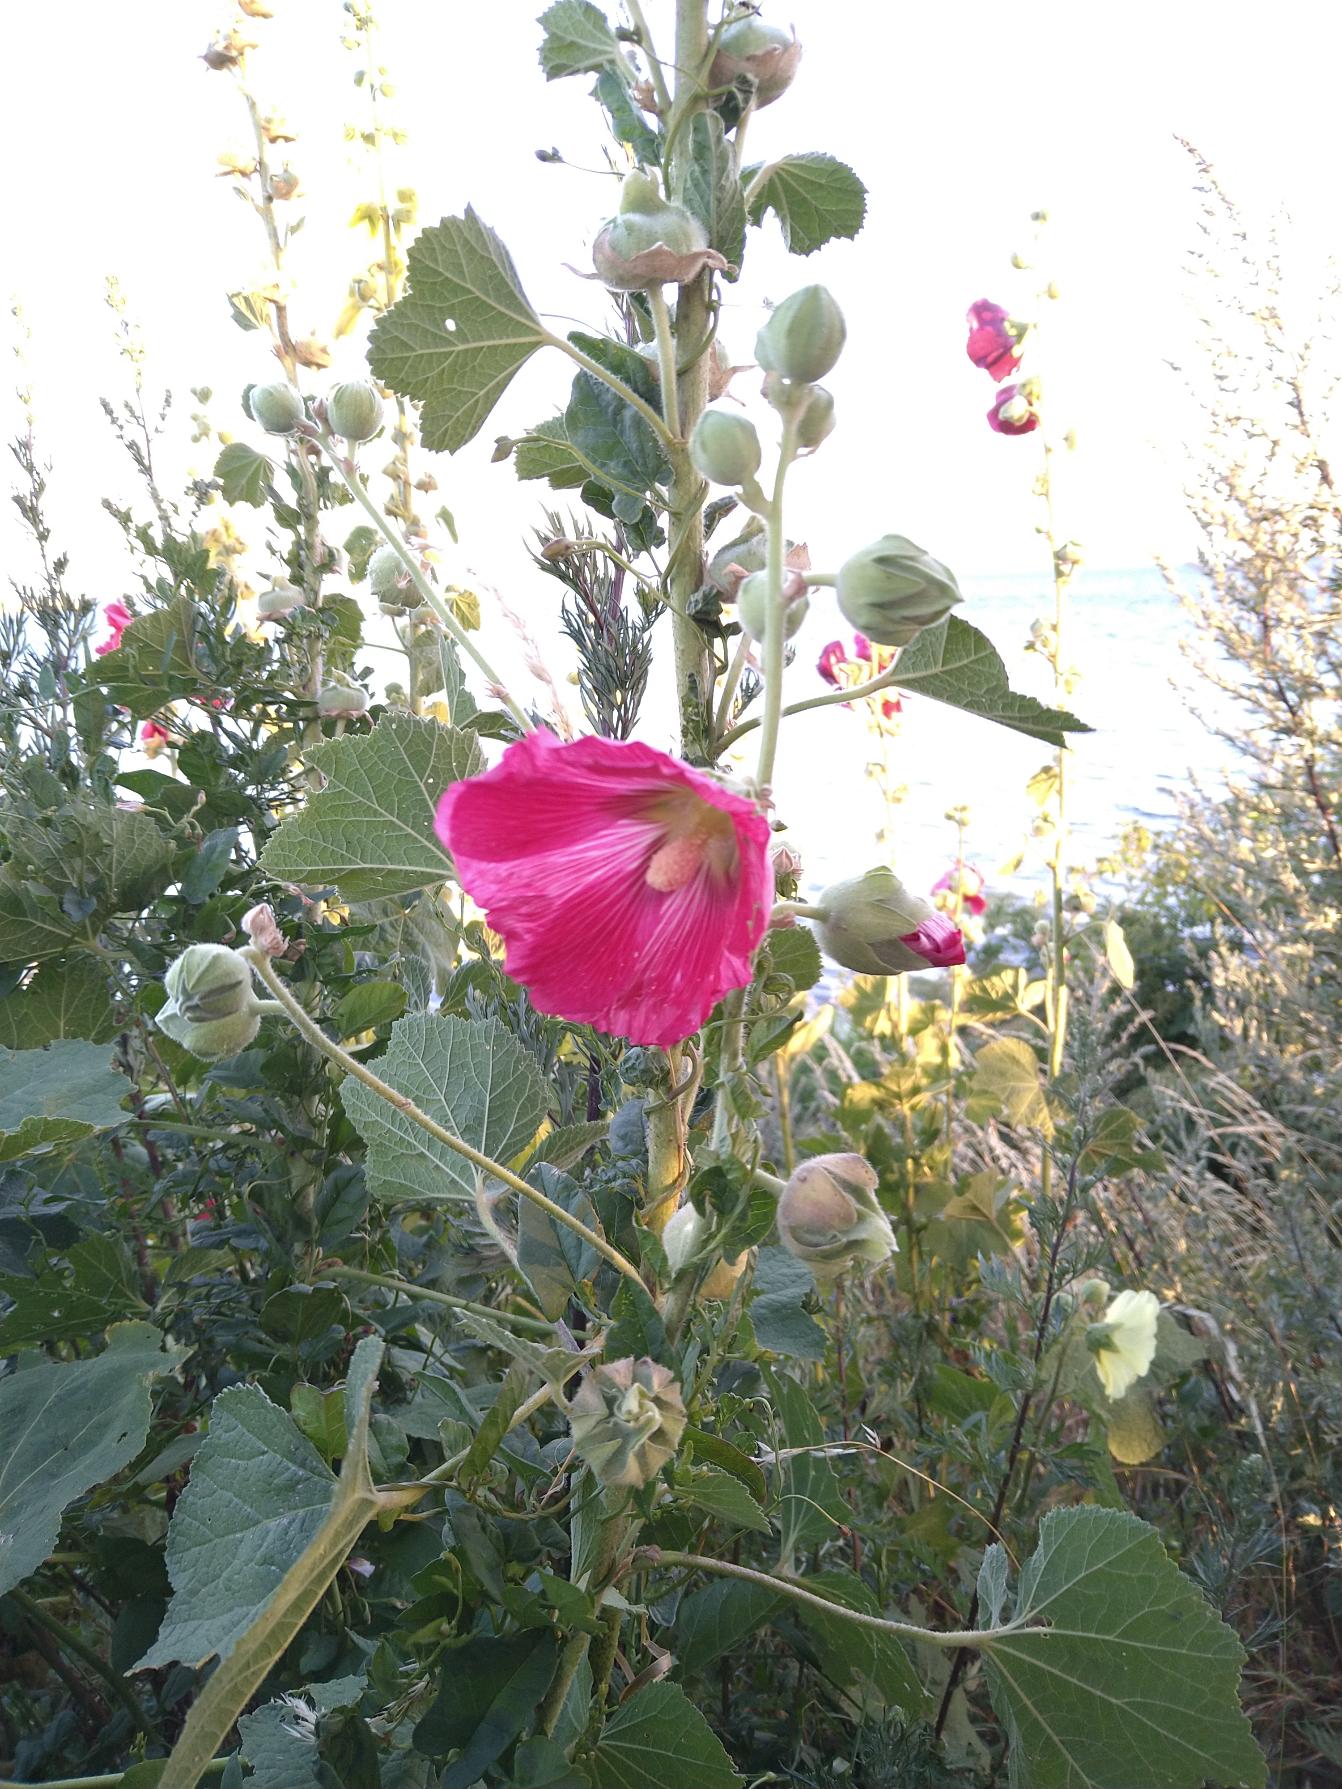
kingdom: Plantae
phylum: Tracheophyta
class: Magnoliopsida
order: Malvales
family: Malvaceae
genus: Alcea
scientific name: Alcea rosea
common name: Have-stokrose
